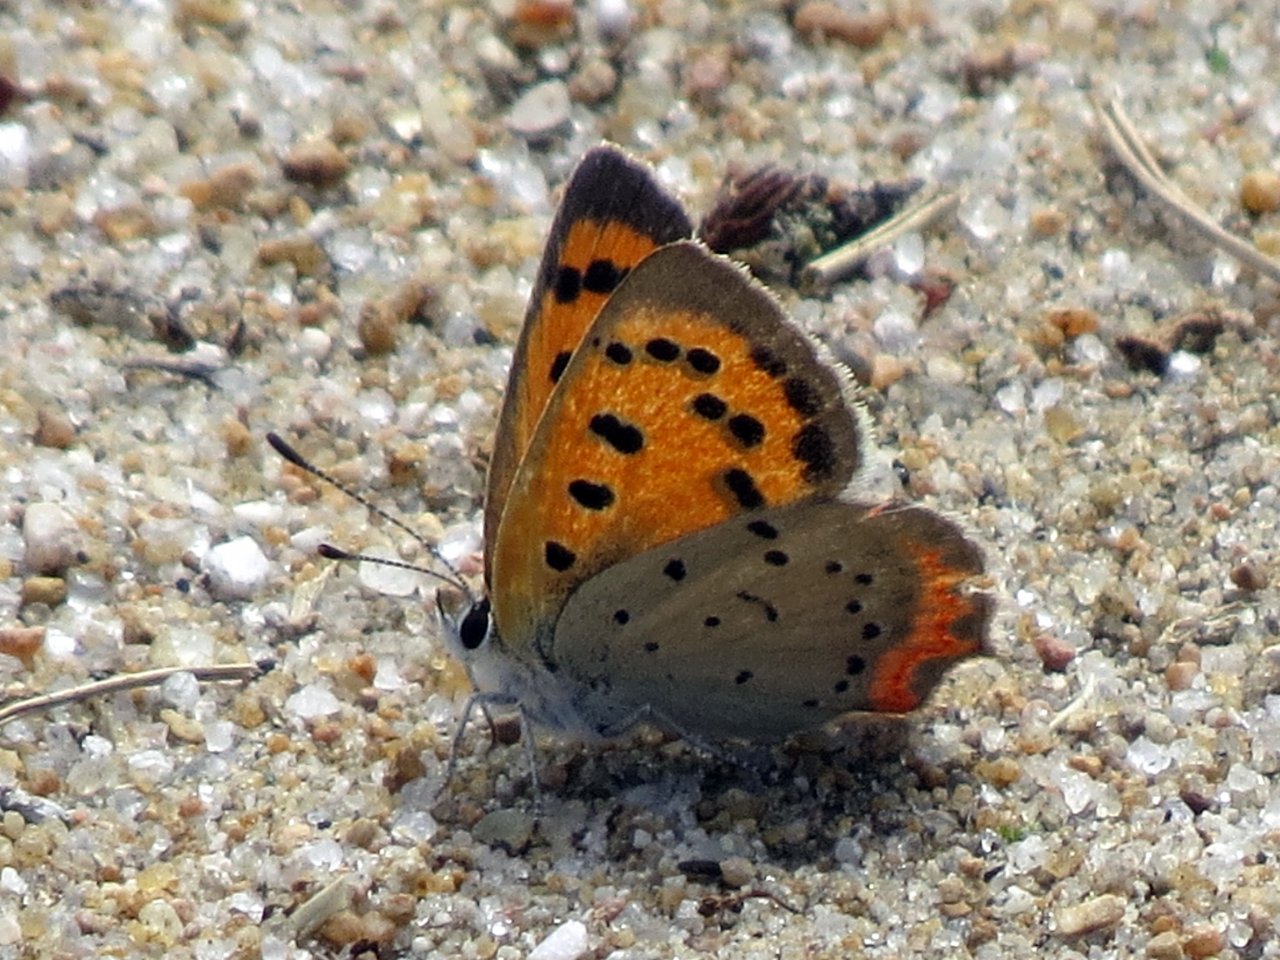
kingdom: Animalia
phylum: Arthropoda
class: Insecta
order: Lepidoptera
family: Lycaenidae
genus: Lycaena
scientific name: Lycaena phlaeas
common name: American Copper
